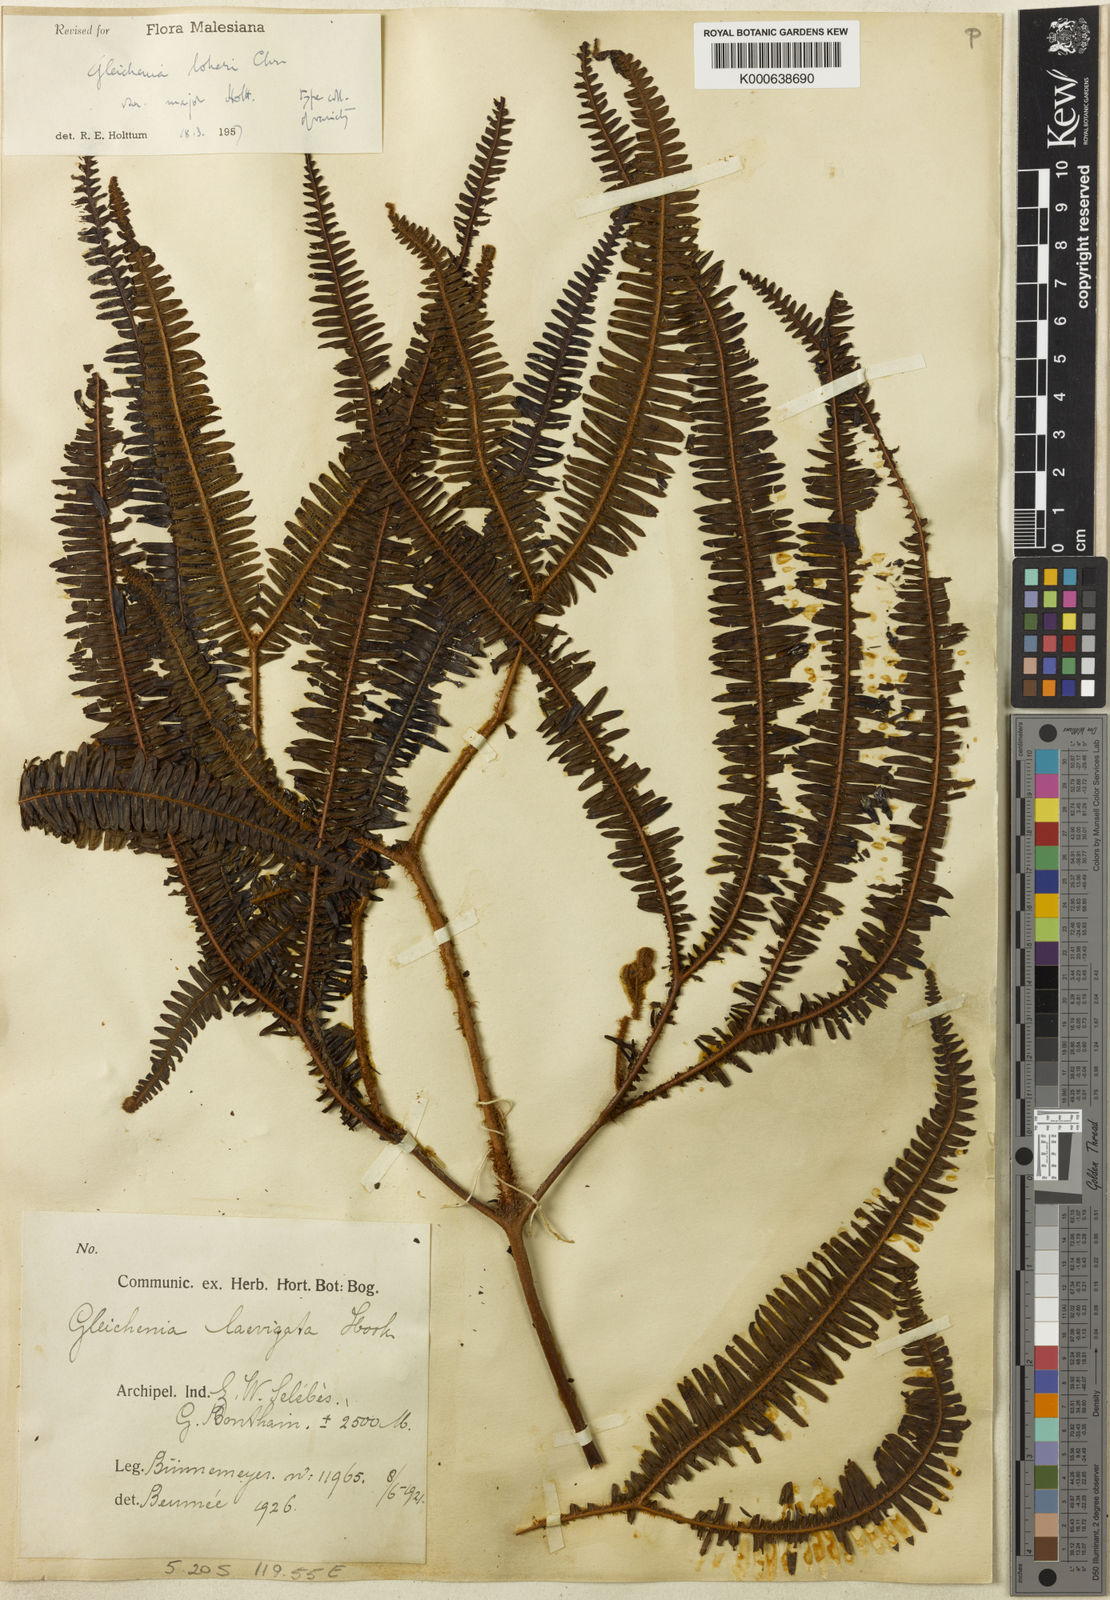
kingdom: Plantae
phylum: Tracheophyta
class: Polypodiopsida
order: Gleicheniales
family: Gleicheniaceae
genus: Sticherus
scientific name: Sticherus loheri
